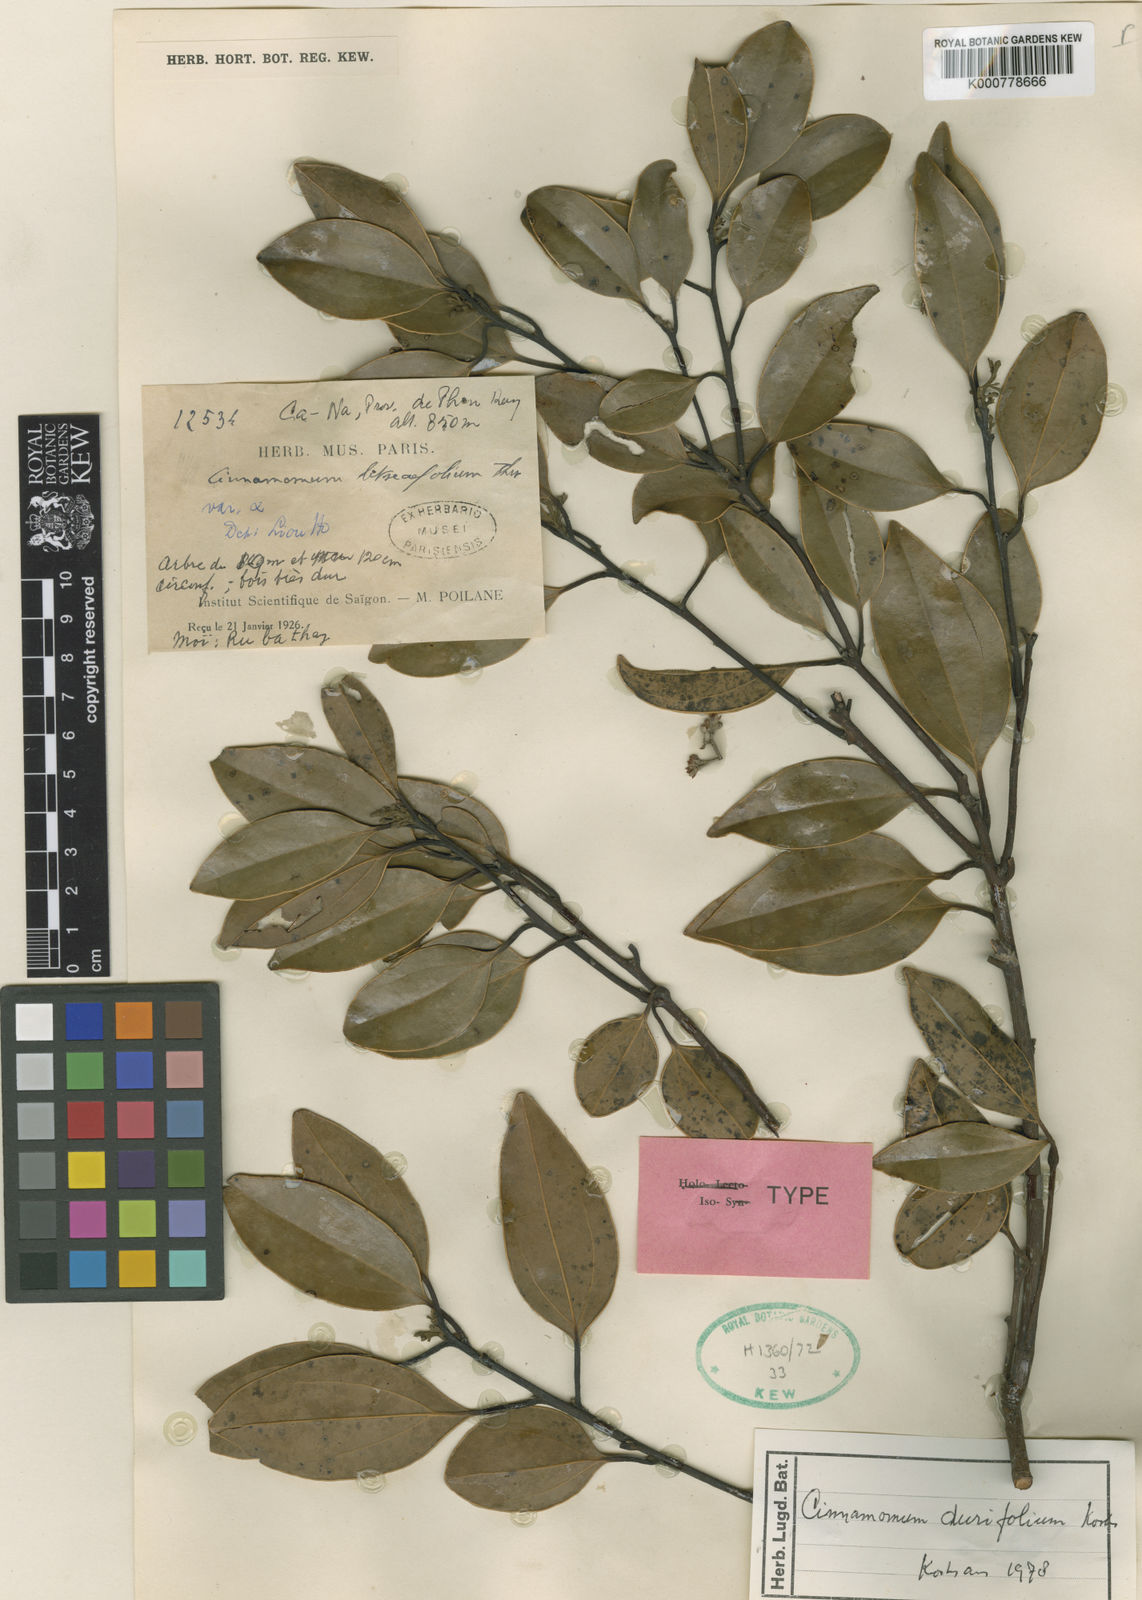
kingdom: Plantae
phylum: Tracheophyta
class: Magnoliopsida
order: Laurales
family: Lauraceae
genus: Cinnamomum
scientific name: Cinnamomum
